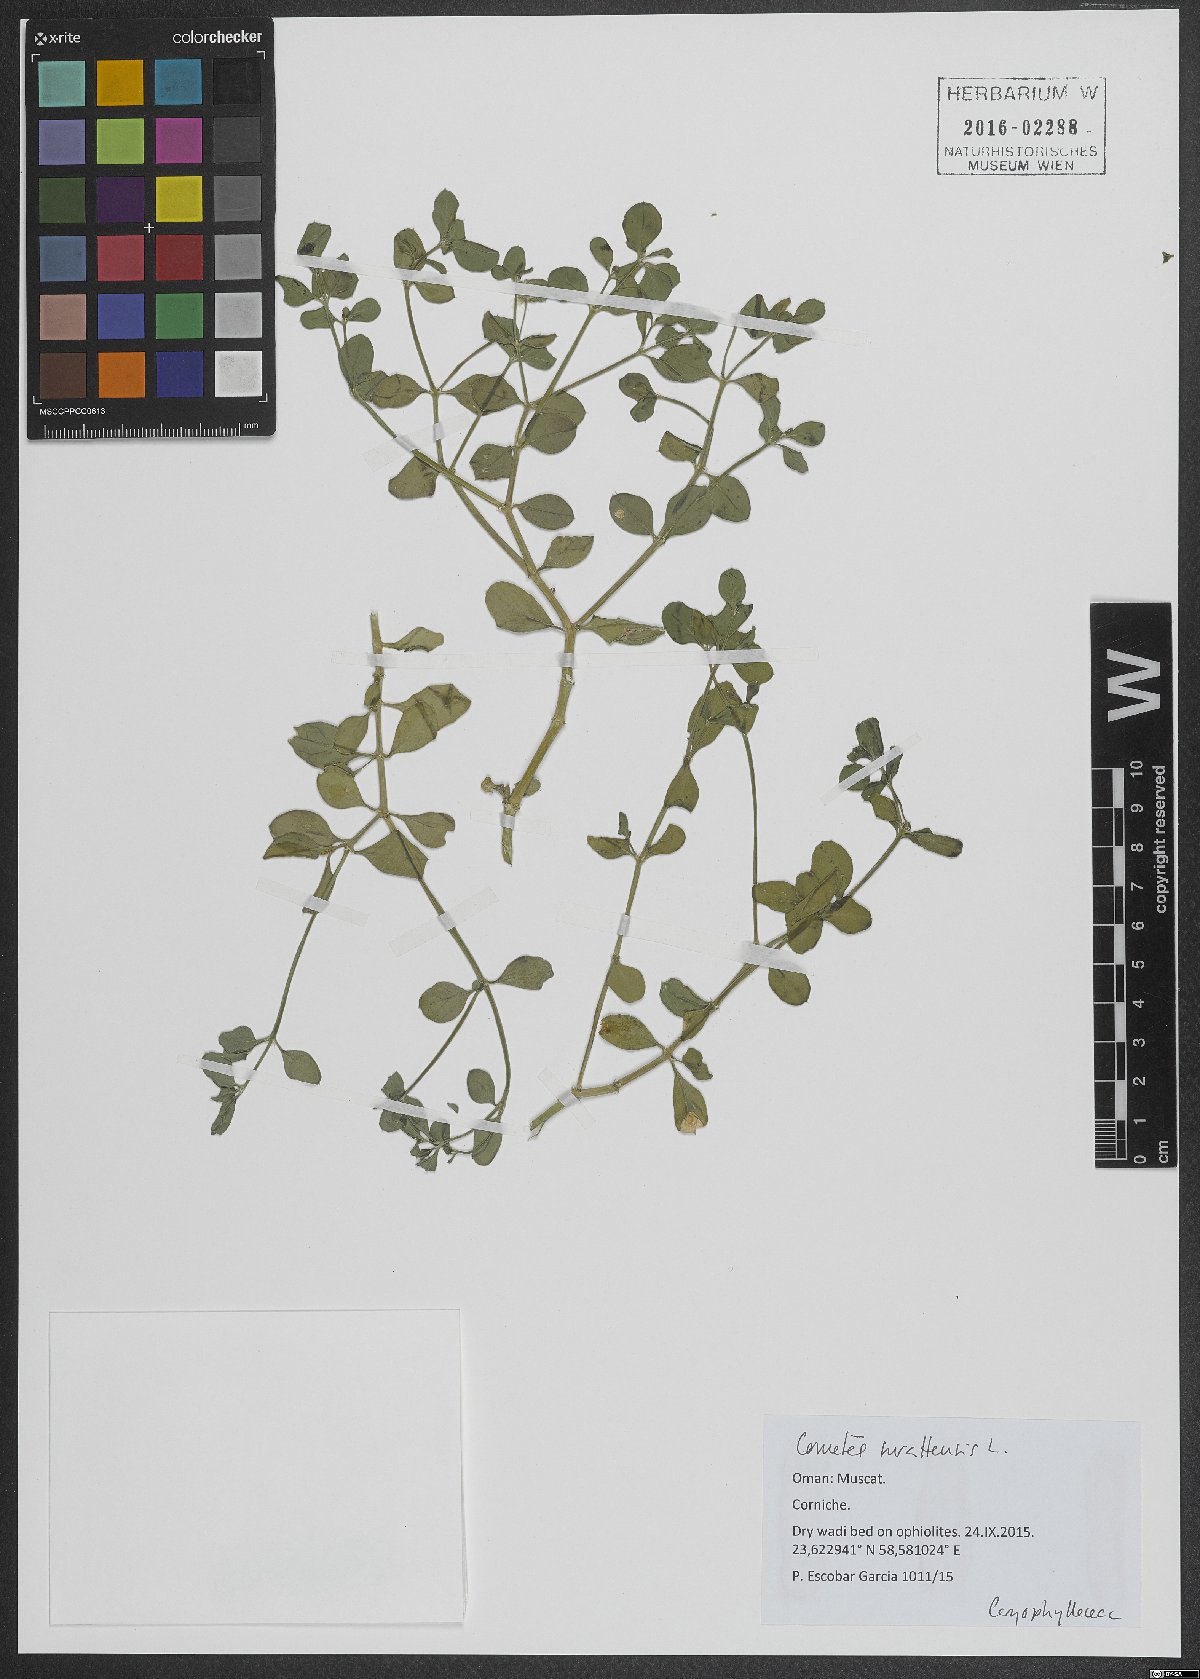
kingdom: Plantae
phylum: Tracheophyta
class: Magnoliopsida
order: Caryophyllales
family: Caryophyllaceae
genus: Cometes
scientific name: Cometes surattensis
